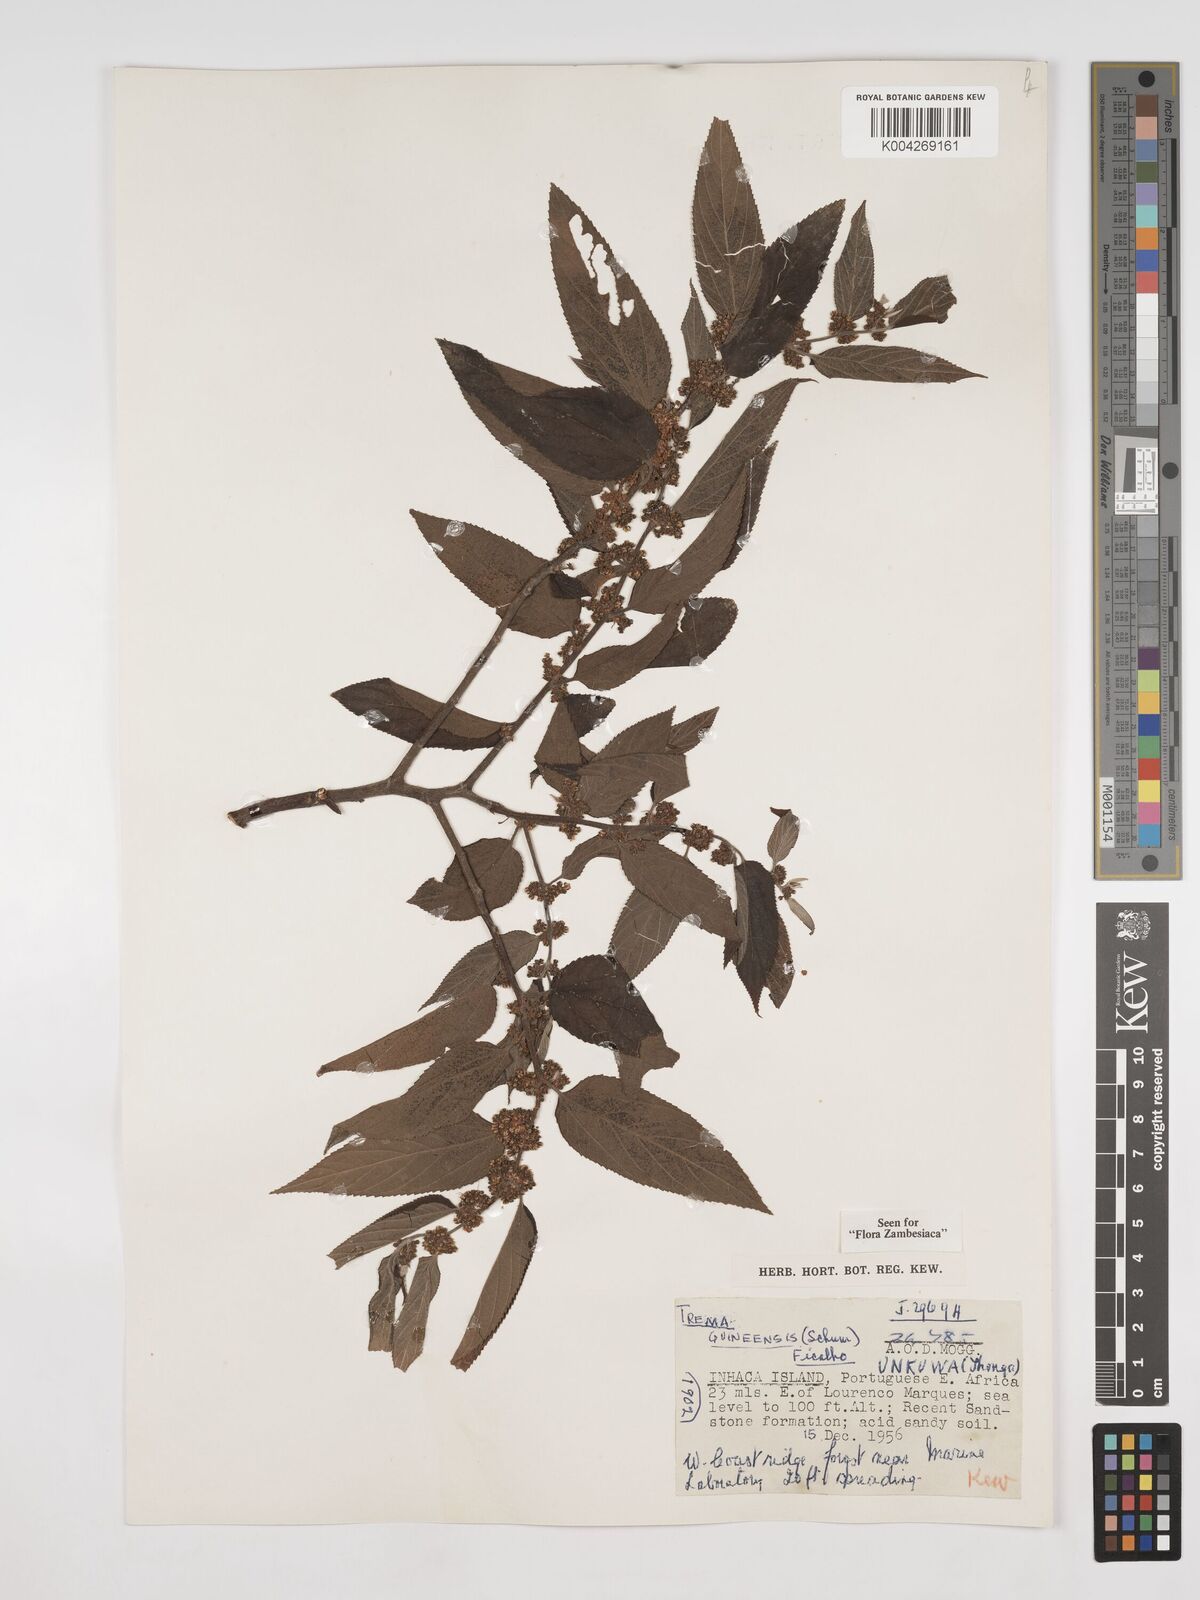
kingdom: Plantae
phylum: Tracheophyta
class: Magnoliopsida
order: Rosales
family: Cannabaceae
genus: Trema
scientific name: Trema orientale
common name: Indian charcoal tree
